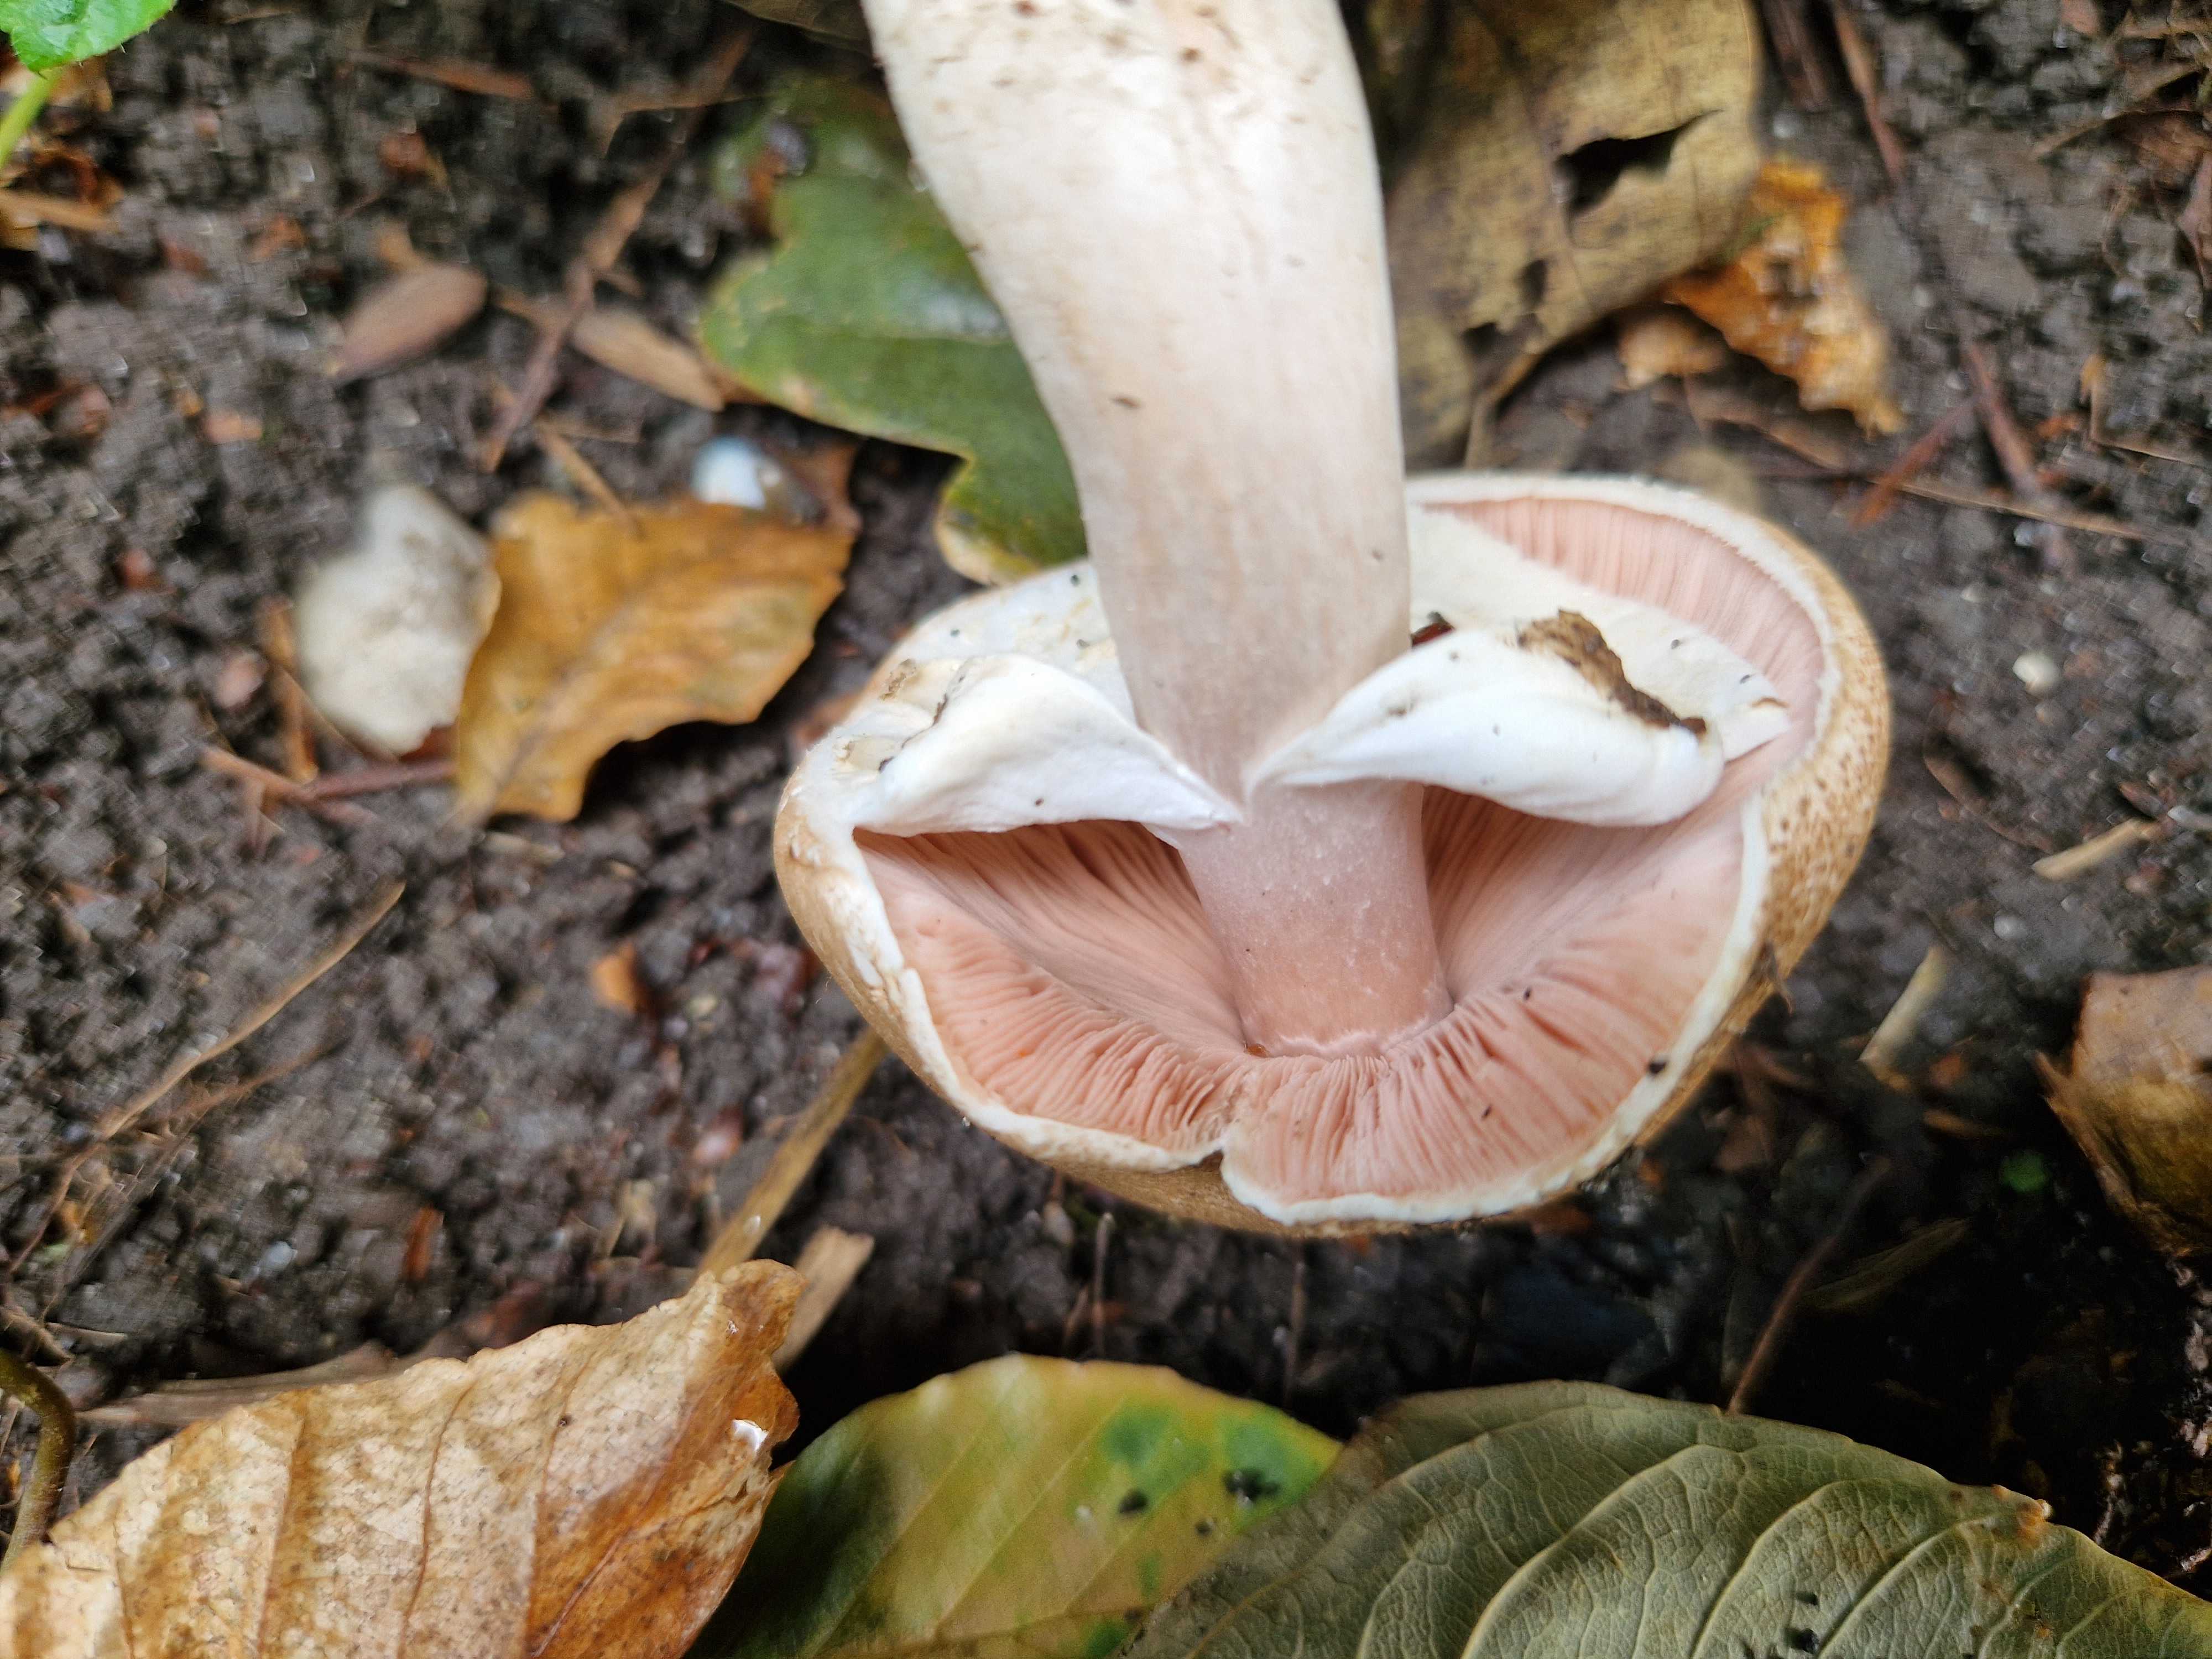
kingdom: Fungi
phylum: Basidiomycota
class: Agaricomycetes
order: Agaricales
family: Agaricaceae
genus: Agaricus
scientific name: Agaricus impudicus
